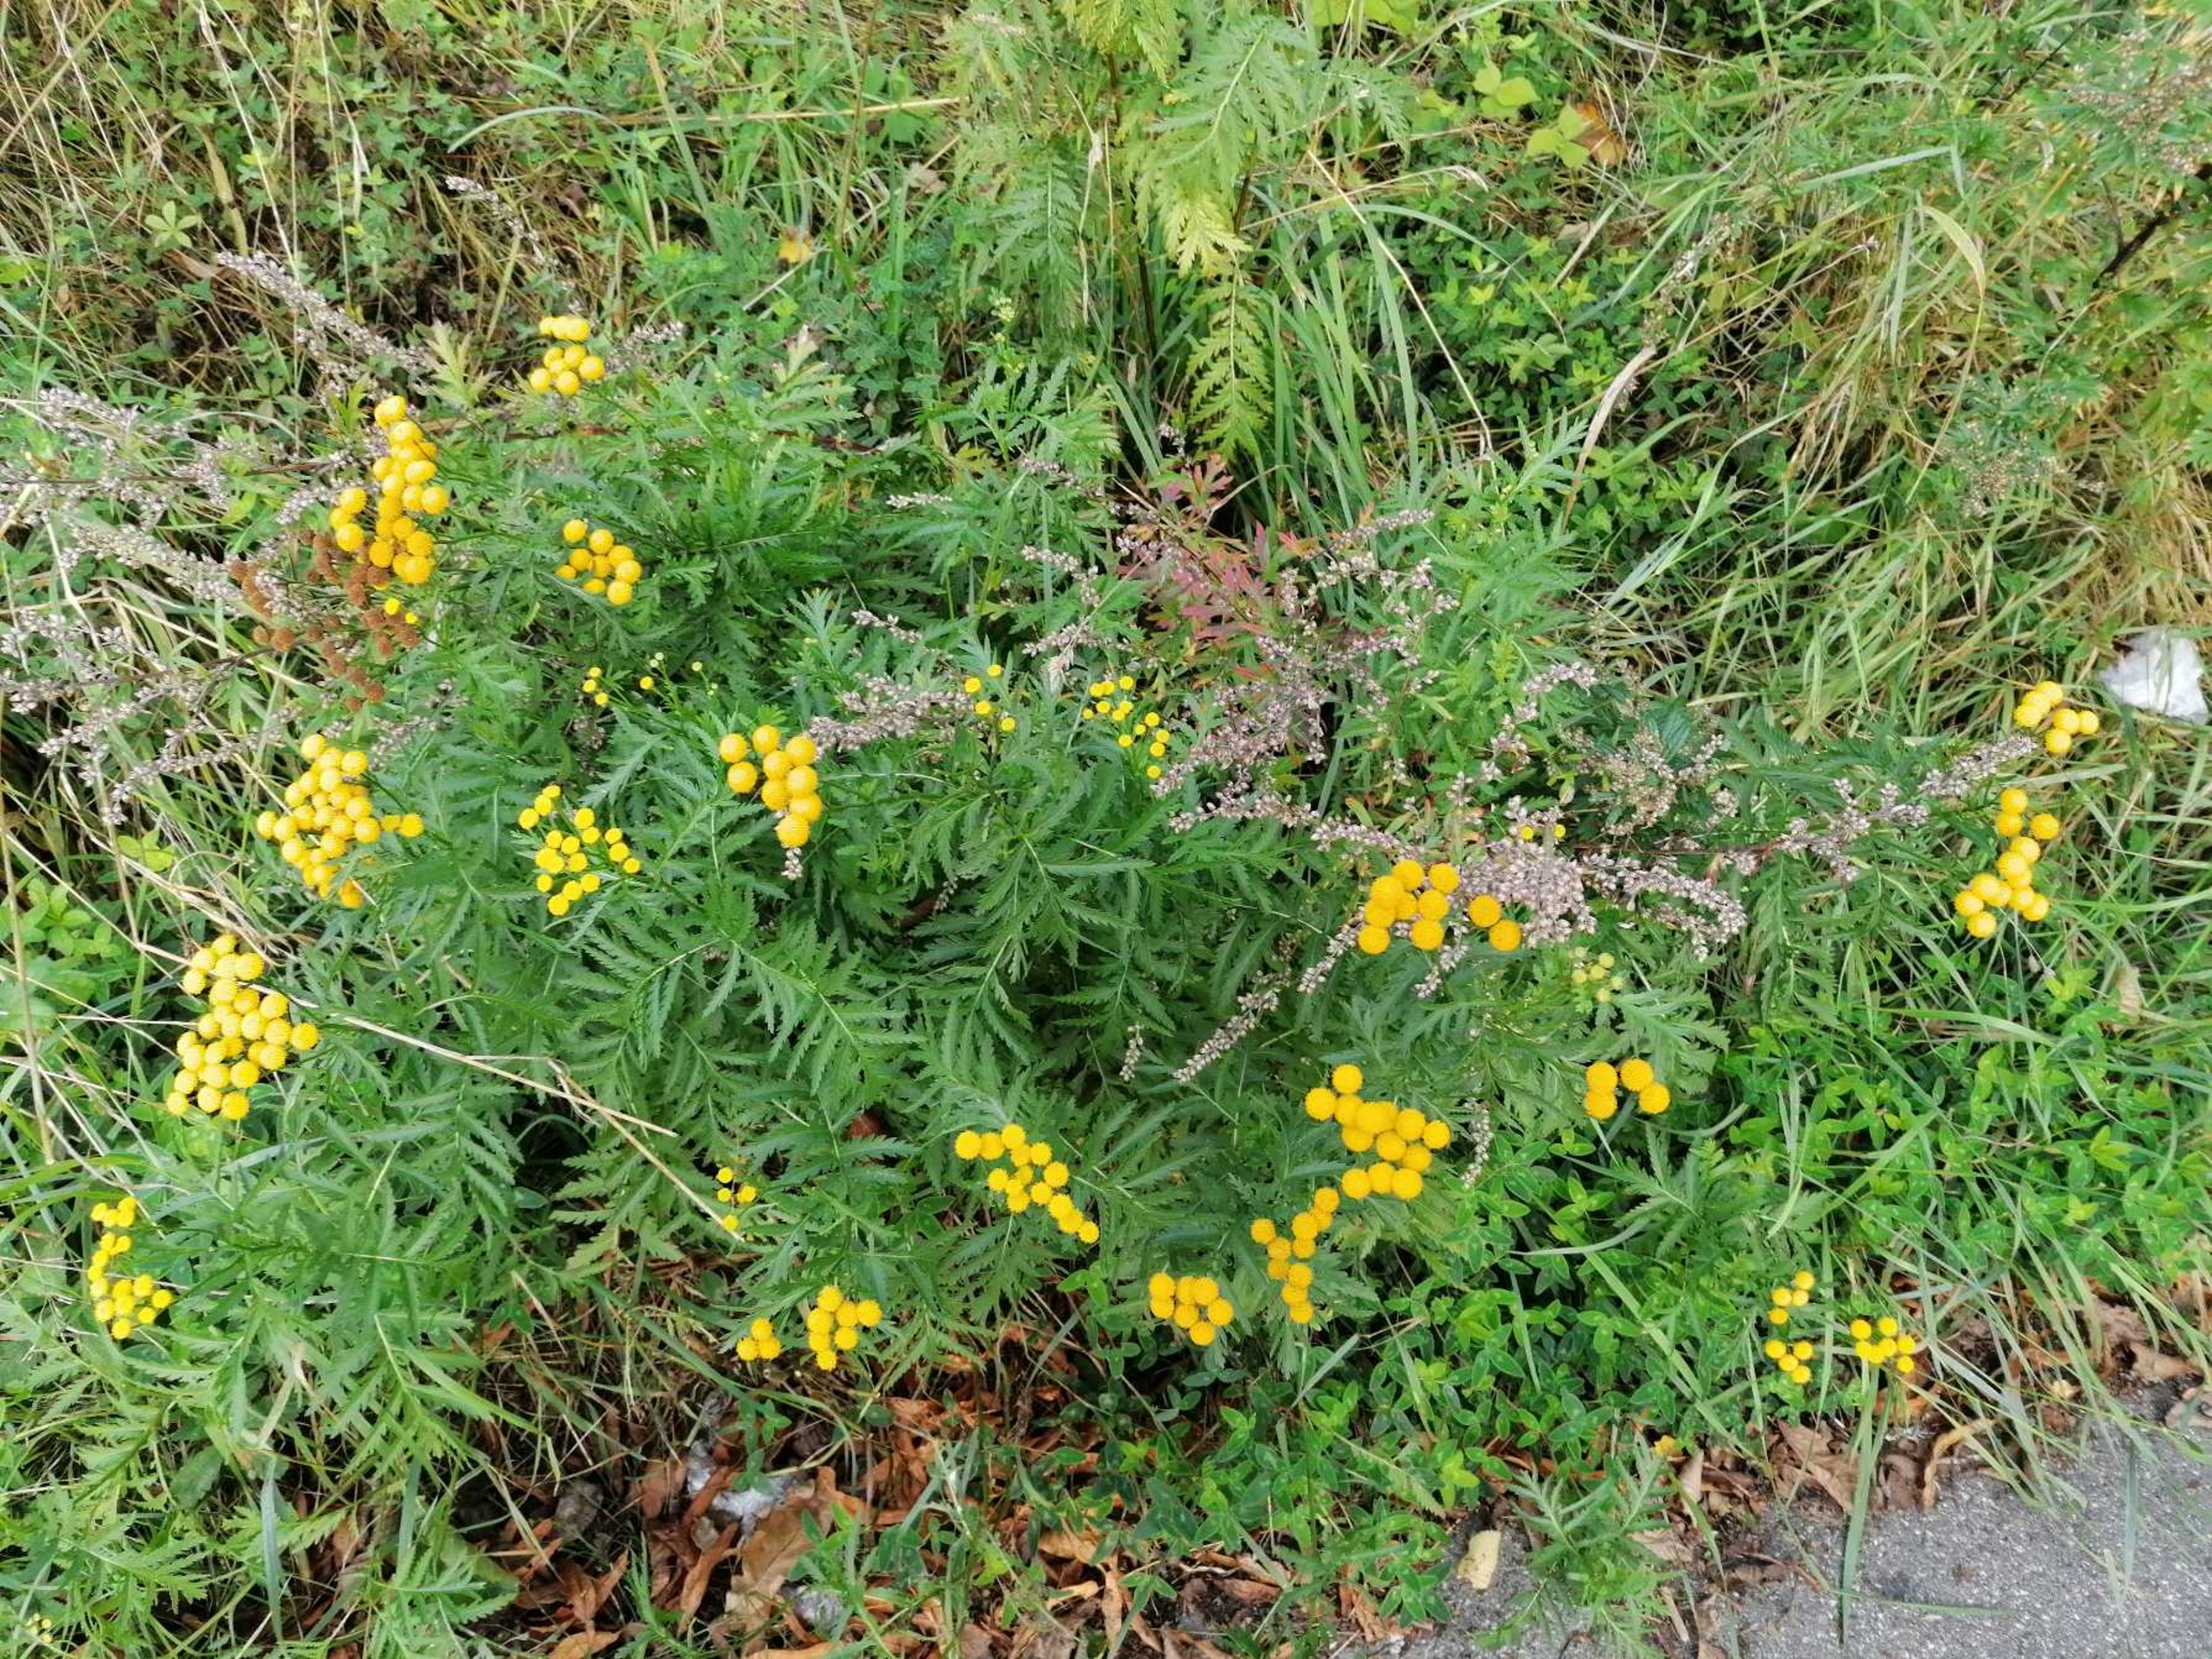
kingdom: Plantae
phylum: Tracheophyta
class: Magnoliopsida
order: Asterales
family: Asteraceae
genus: Tanacetum
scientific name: Tanacetum vulgare
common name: Rejnfan
